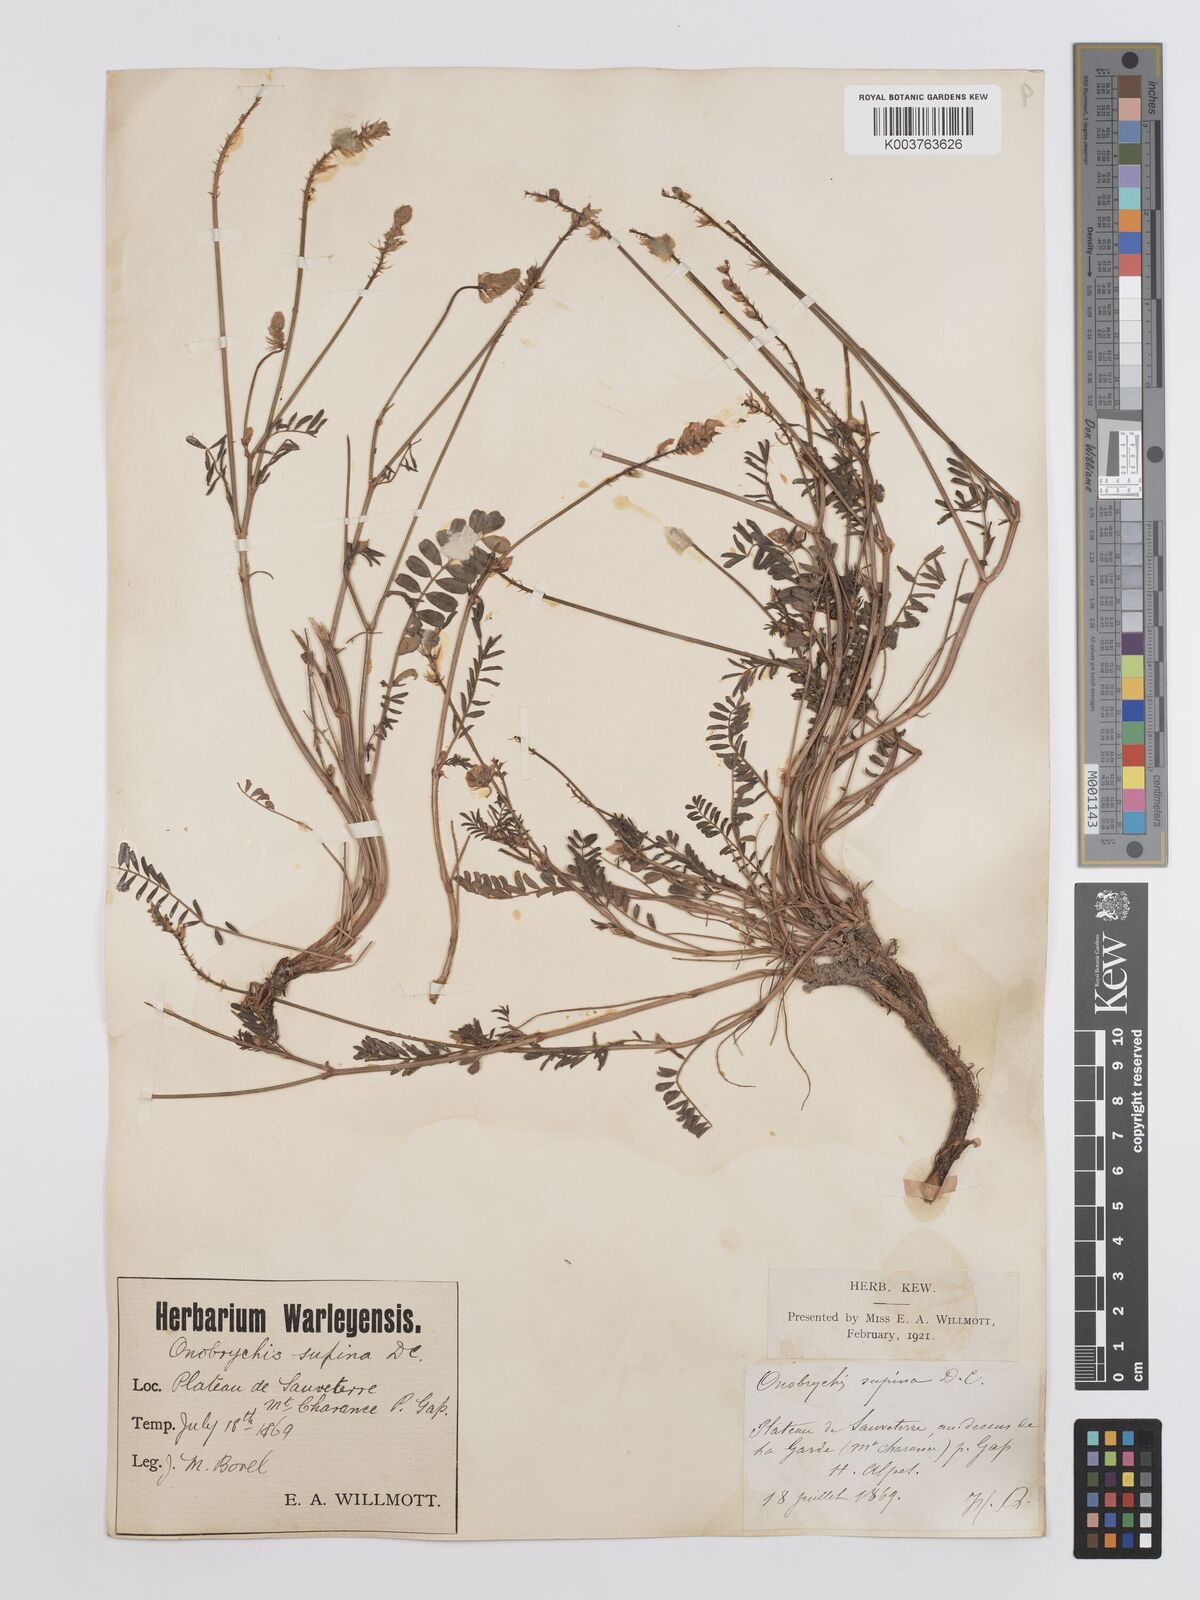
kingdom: Plantae
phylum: Tracheophyta
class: Magnoliopsida
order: Fabales
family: Fabaceae
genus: Onobrychis
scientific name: Onobrychis supina
